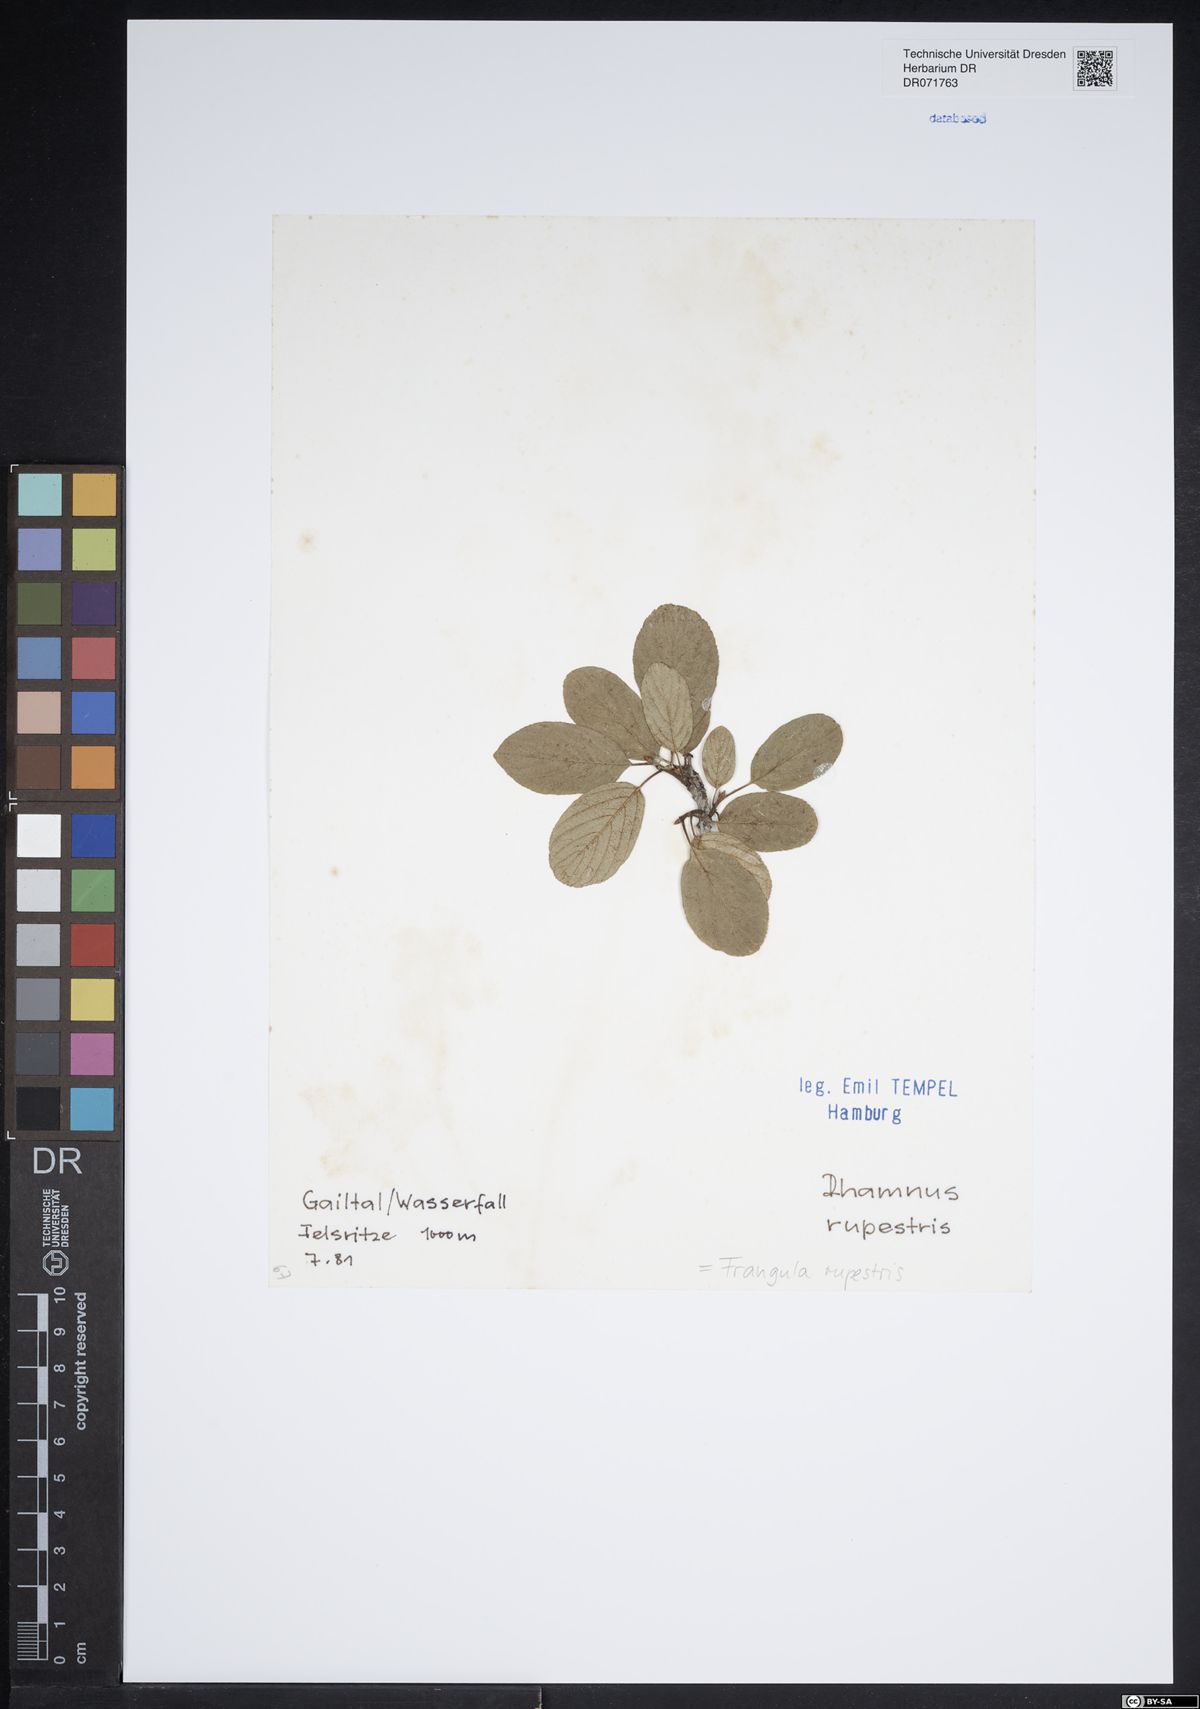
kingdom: Plantae
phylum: Tracheophyta
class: Magnoliopsida
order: Rosales
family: Rhamnaceae
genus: Frangula
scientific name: Frangula rupestris
